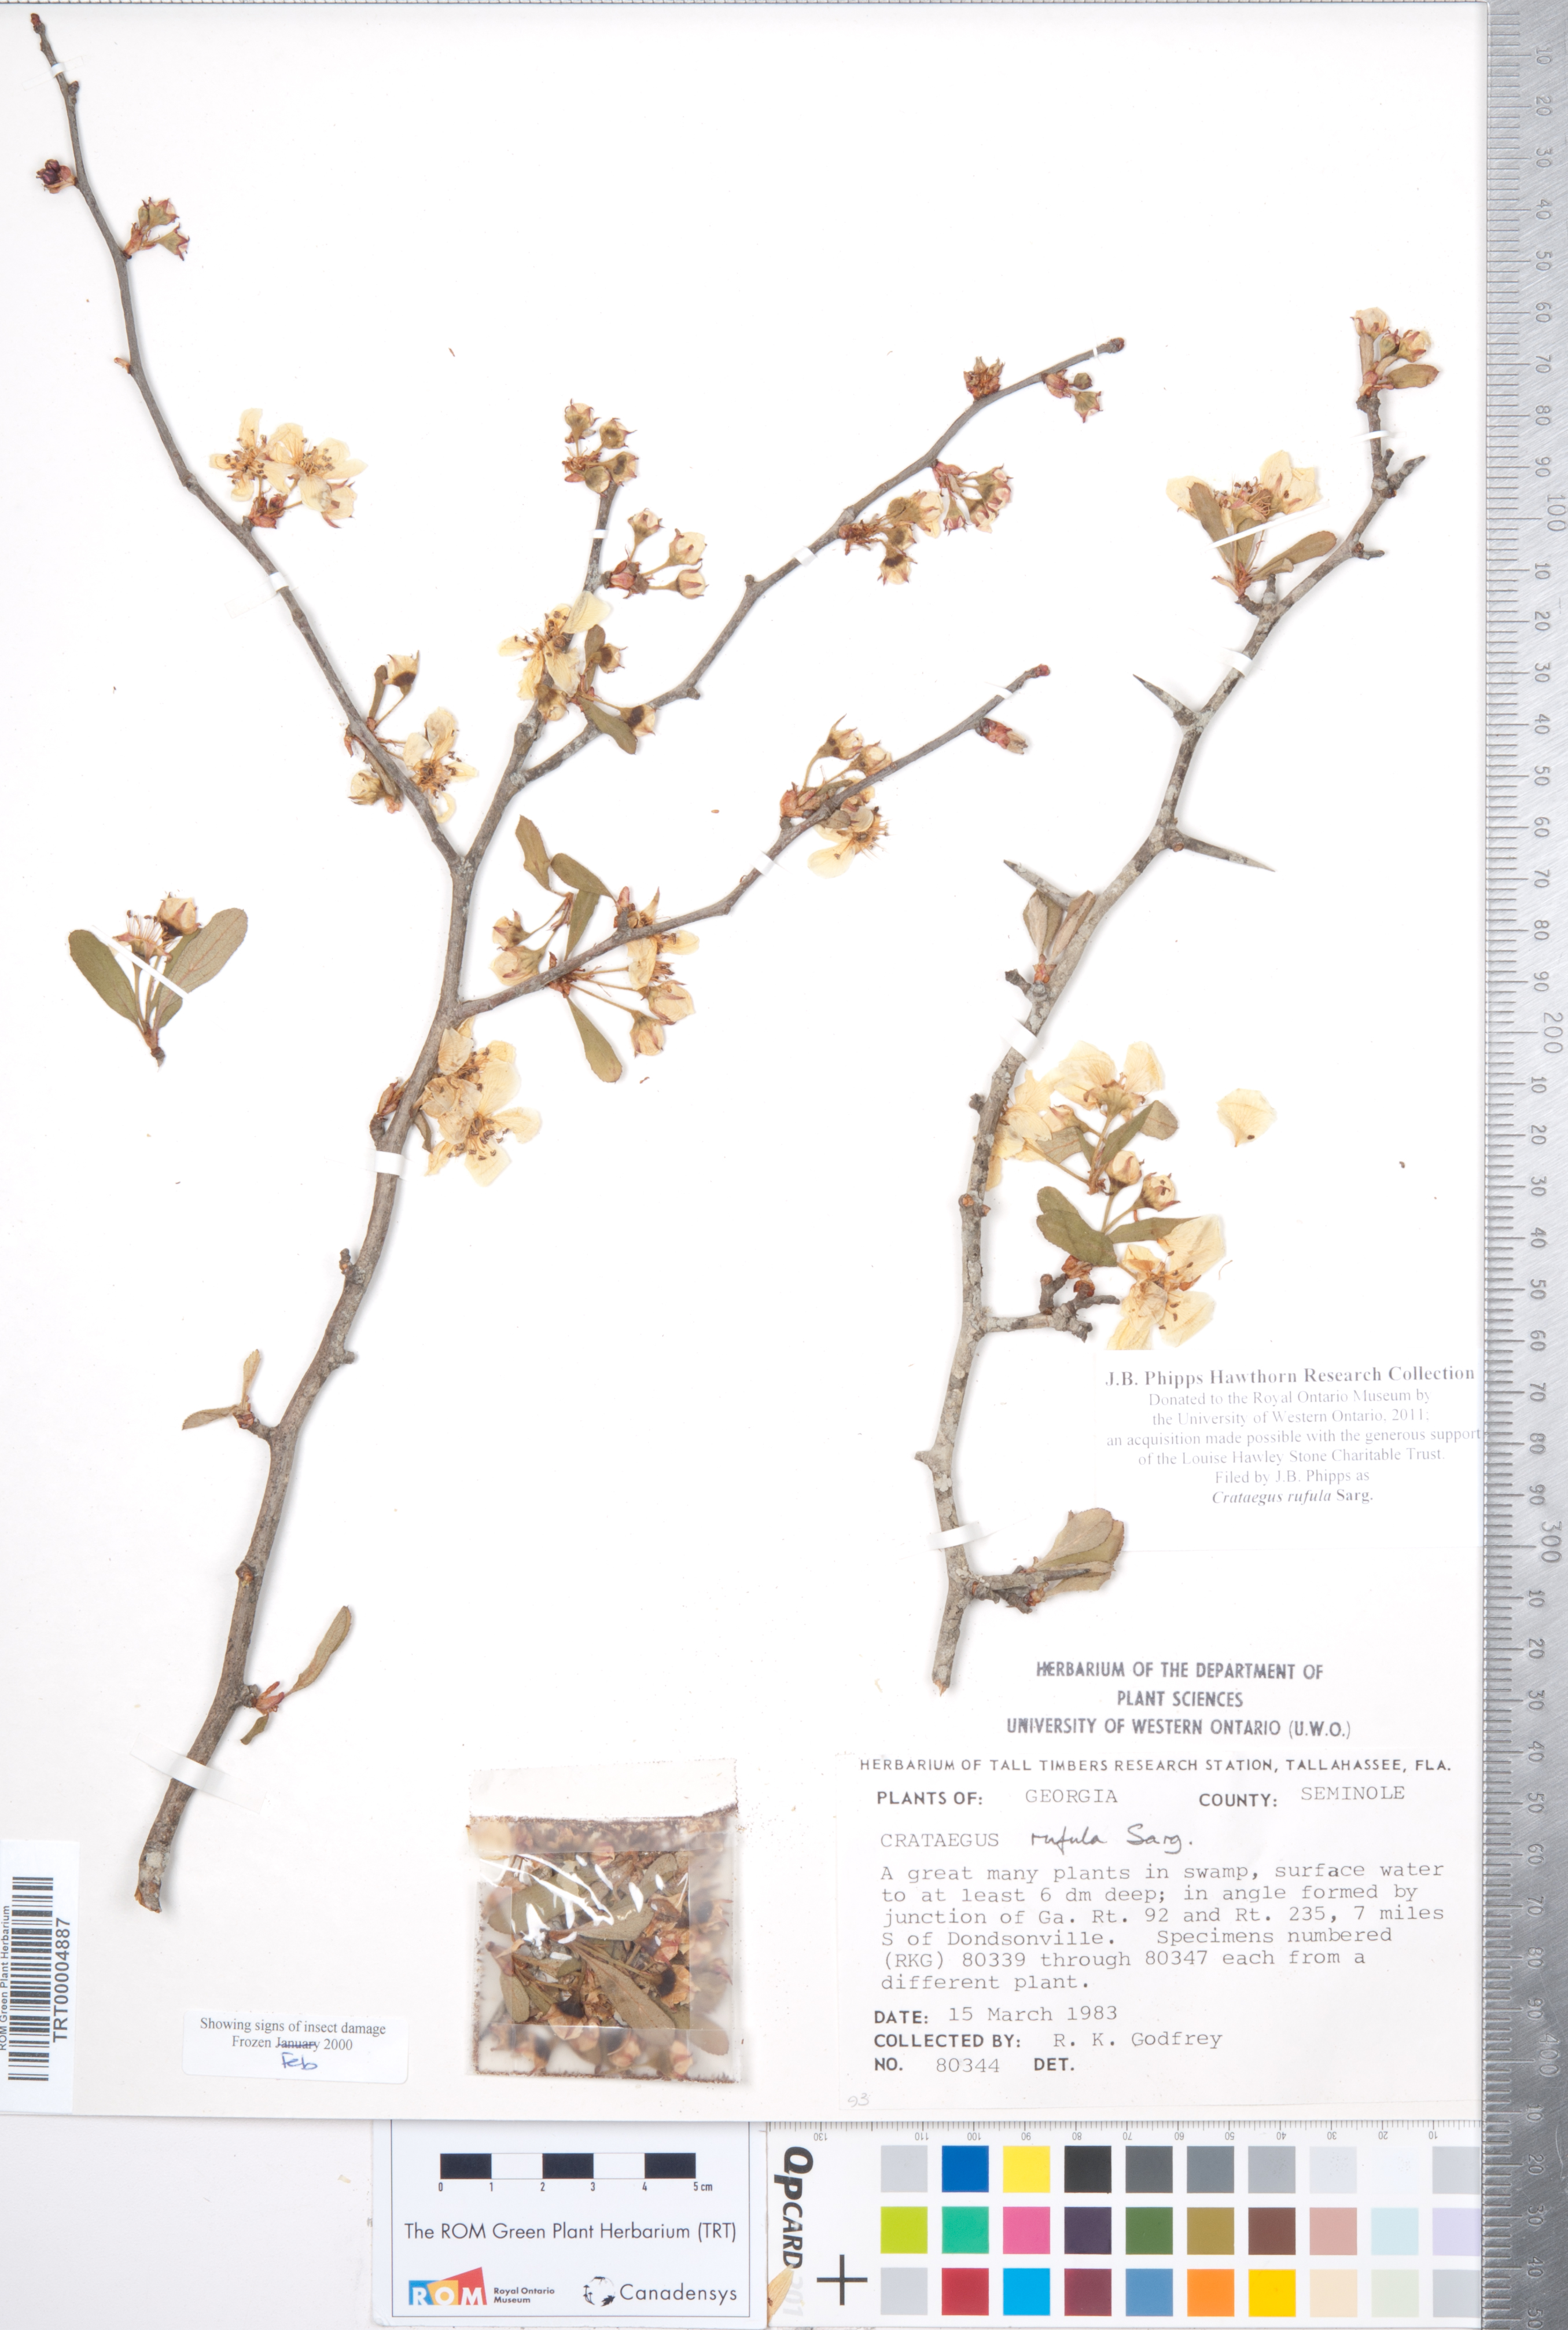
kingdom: Plantae
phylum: Tracheophyta
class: Magnoliopsida
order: Rosales
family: Rosaceae
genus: Crataegus
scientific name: Crataegus rufula
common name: Rufous mayhaw
